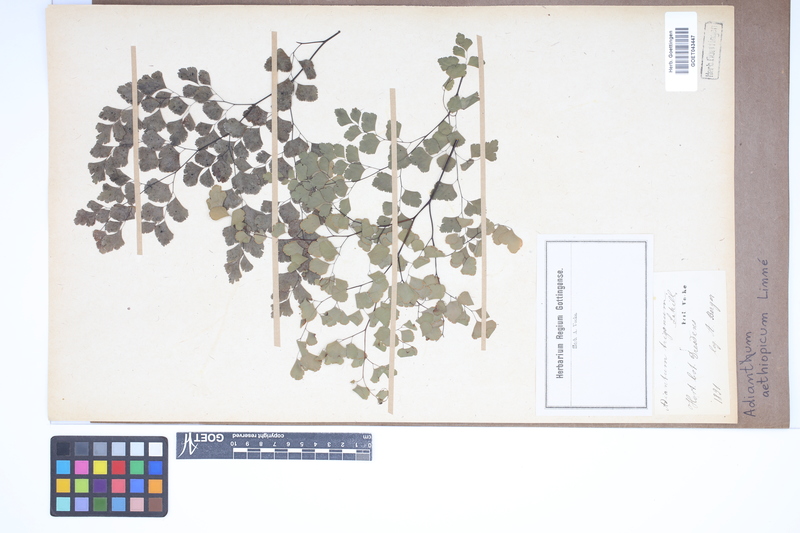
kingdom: Plantae
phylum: Tracheophyta
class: Polypodiopsida
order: Polypodiales
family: Pteridaceae
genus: Adiantum
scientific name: Adiantum aethiopicum
